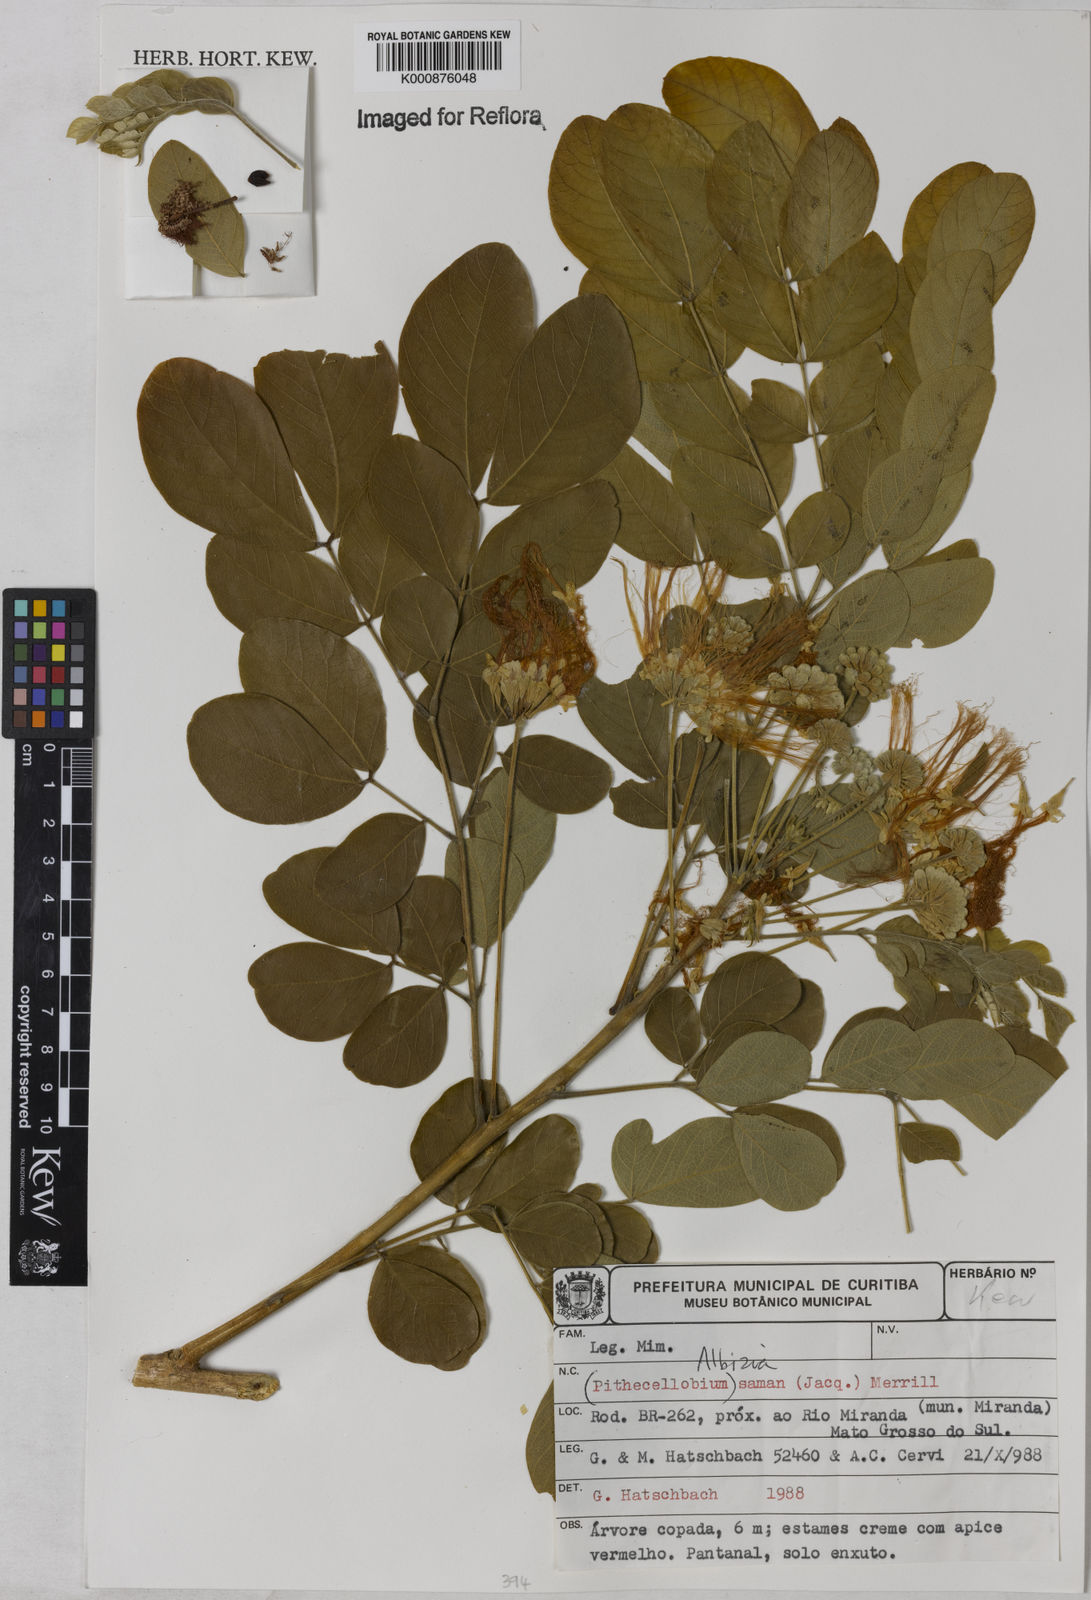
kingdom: Plantae
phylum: Tracheophyta
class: Magnoliopsida
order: Fabales
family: Fabaceae
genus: Samanea
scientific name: Samanea saman
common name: Raintree
